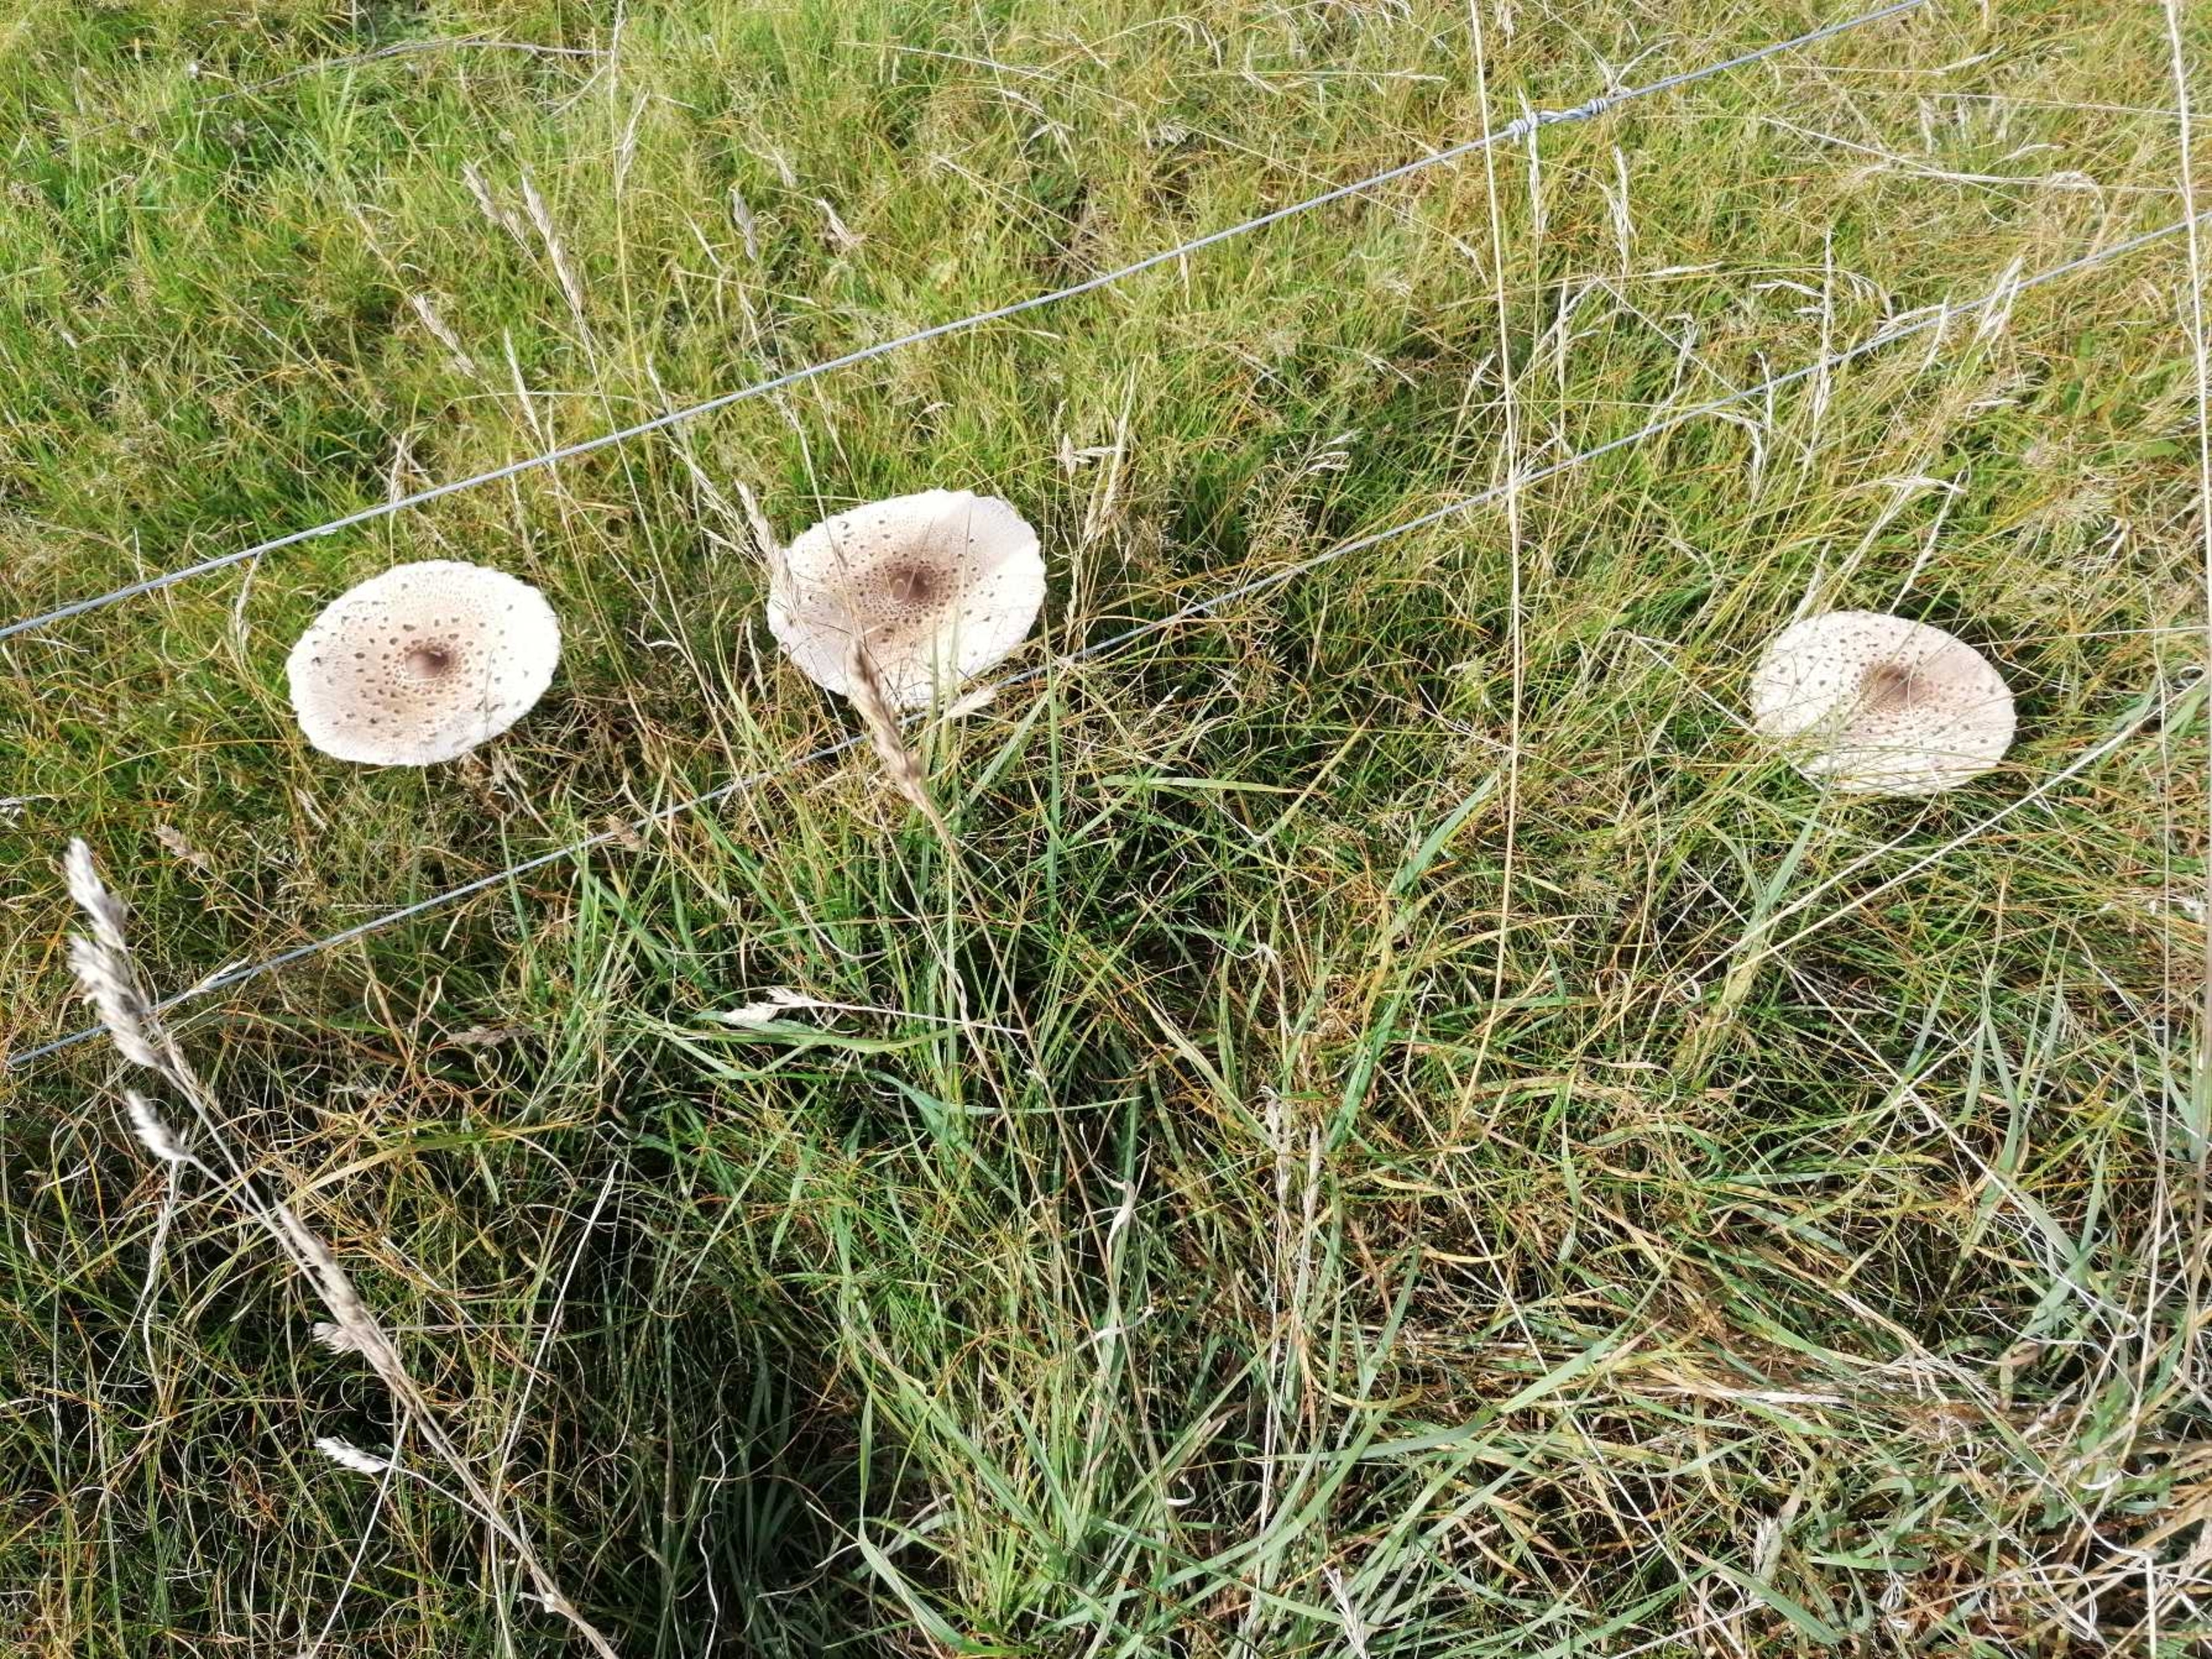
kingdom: Fungi
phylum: Basidiomycota
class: Agaricomycetes
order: Agaricales
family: Agaricaceae
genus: Macrolepiota
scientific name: Macrolepiota
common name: Kæmpeparasolhat
